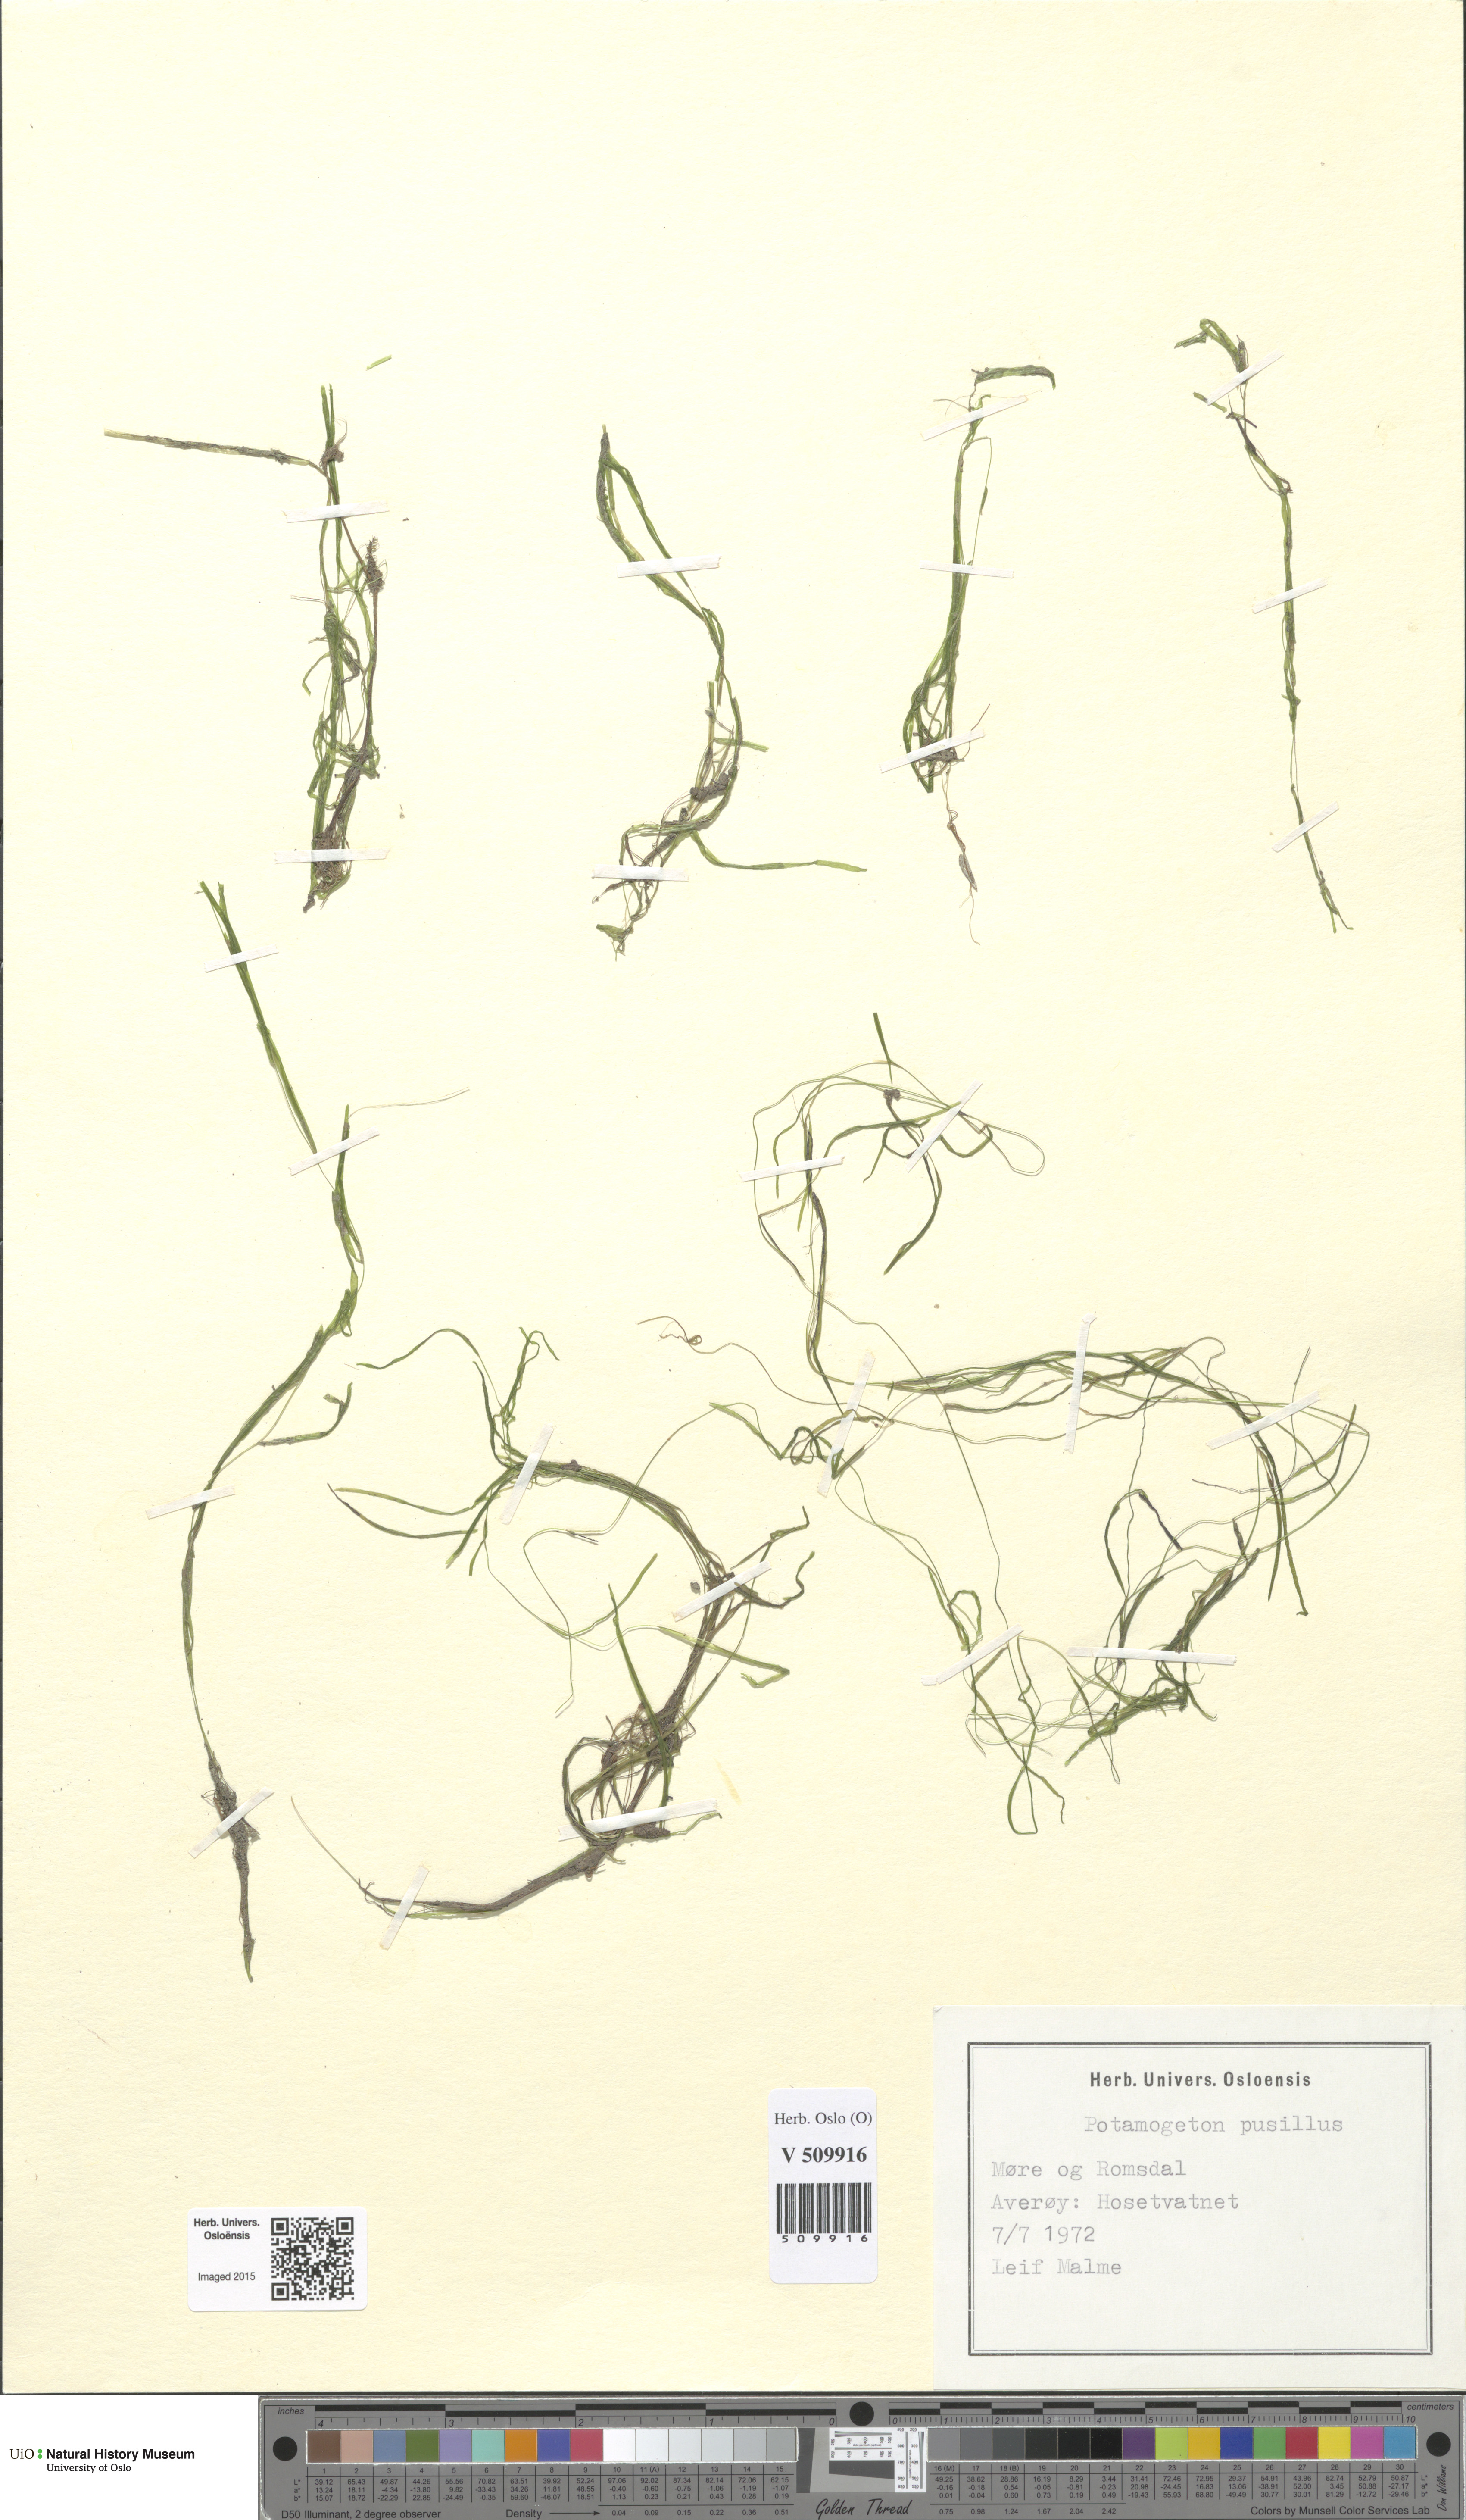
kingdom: Plantae
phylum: Tracheophyta
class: Liliopsida
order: Alismatales
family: Potamogetonaceae
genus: Potamogeton
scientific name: Potamogeton berchtoldii
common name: Small pondweed
